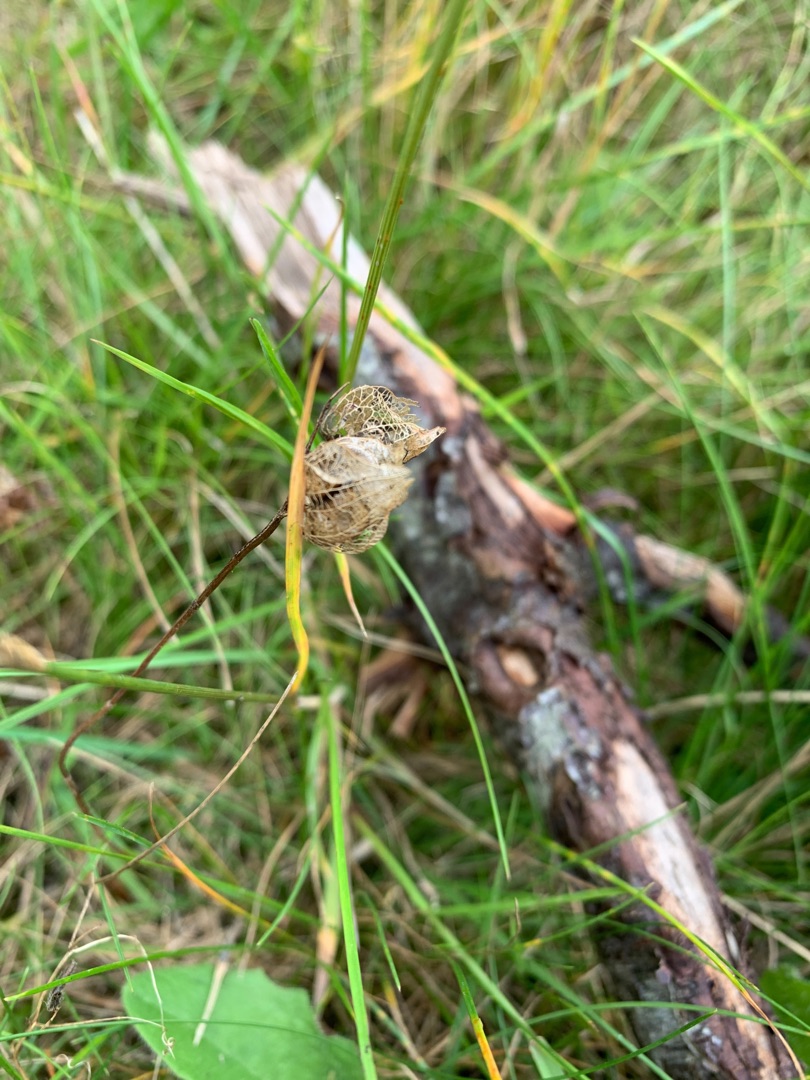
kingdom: Plantae
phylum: Tracheophyta
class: Magnoliopsida
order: Lamiales
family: Orobanchaceae
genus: Rhinanthus
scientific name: Rhinanthus
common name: Skjallerslægten
